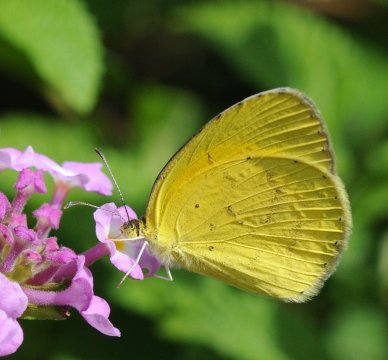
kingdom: Animalia
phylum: Arthropoda
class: Insecta
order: Lepidoptera
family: Pieridae
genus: Eurema
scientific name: Eurema brigitta
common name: Broad-bordered Grass Yellow
